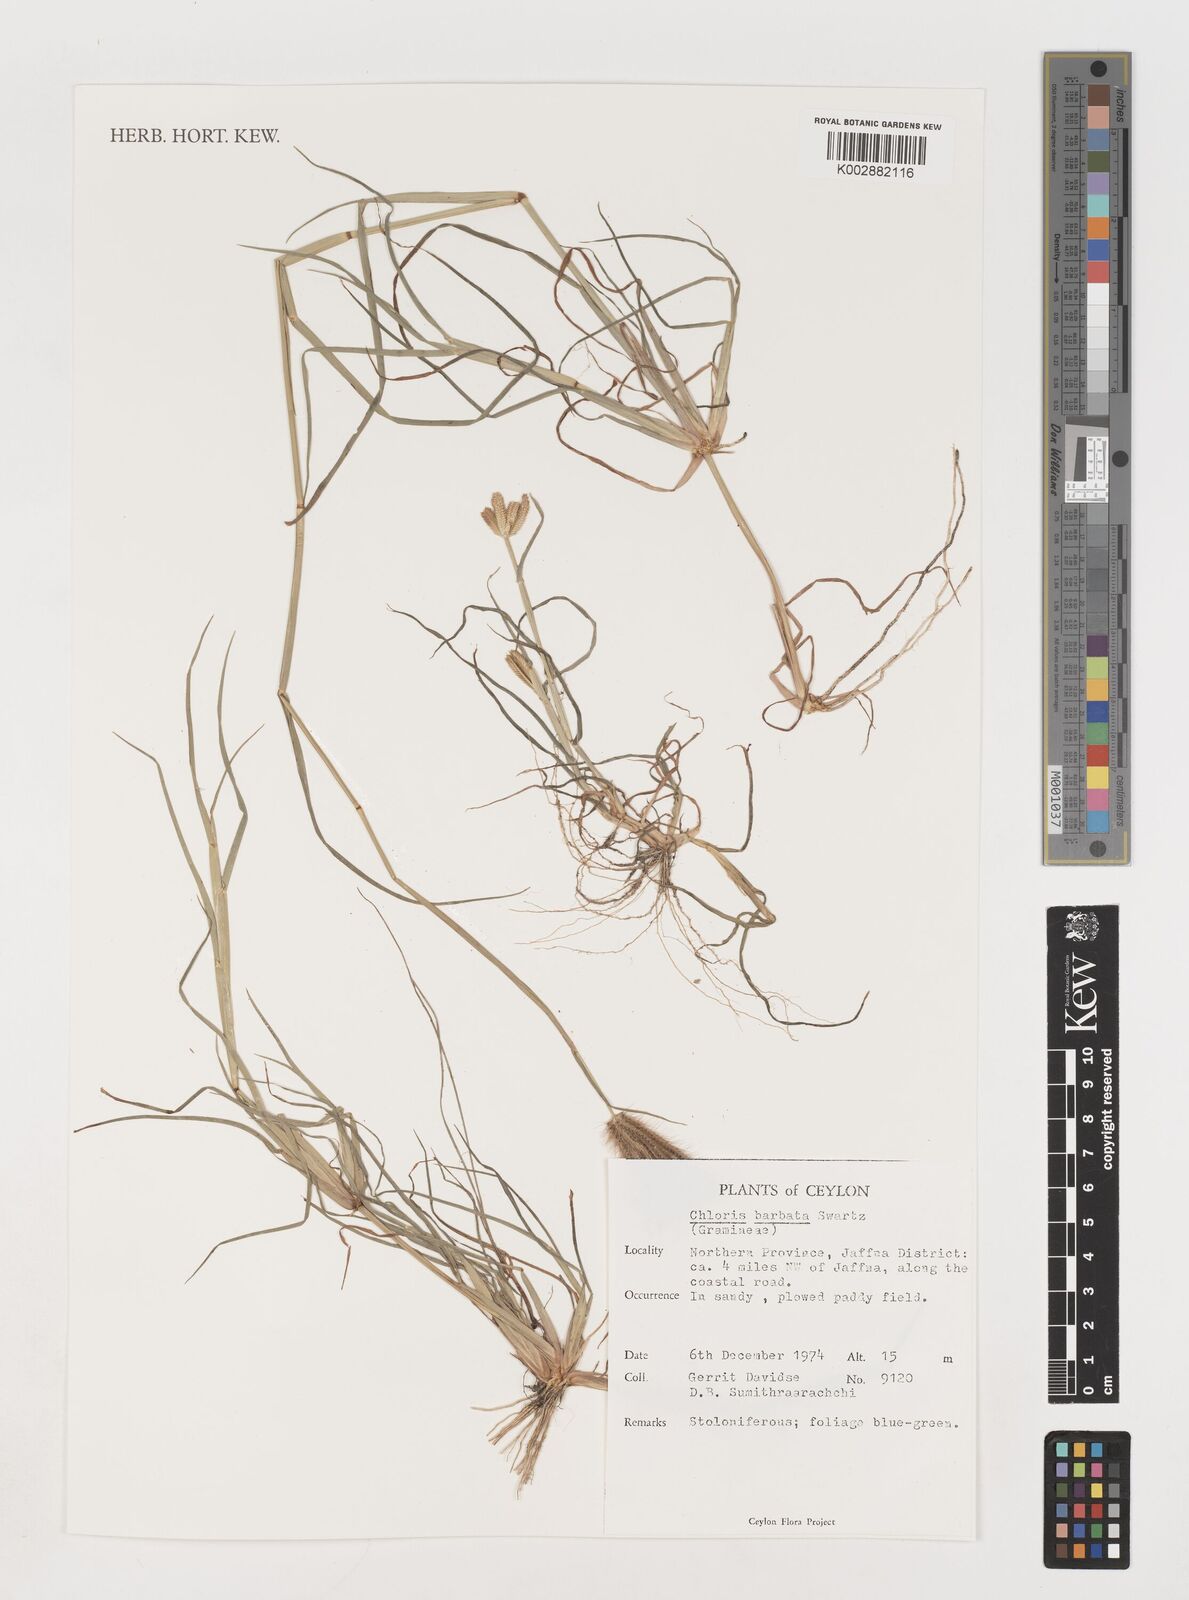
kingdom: Plantae
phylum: Tracheophyta
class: Liliopsida
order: Poales
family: Poaceae
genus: Chloris
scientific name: Chloris barbata
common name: Swollen fingergrass
